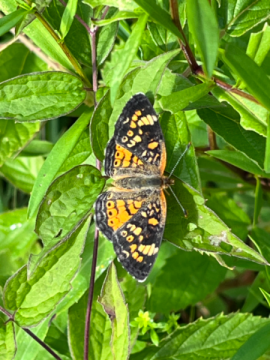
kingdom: Animalia
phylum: Arthropoda
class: Insecta
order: Lepidoptera
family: Nymphalidae
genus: Phyciodes
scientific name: Phyciodes
